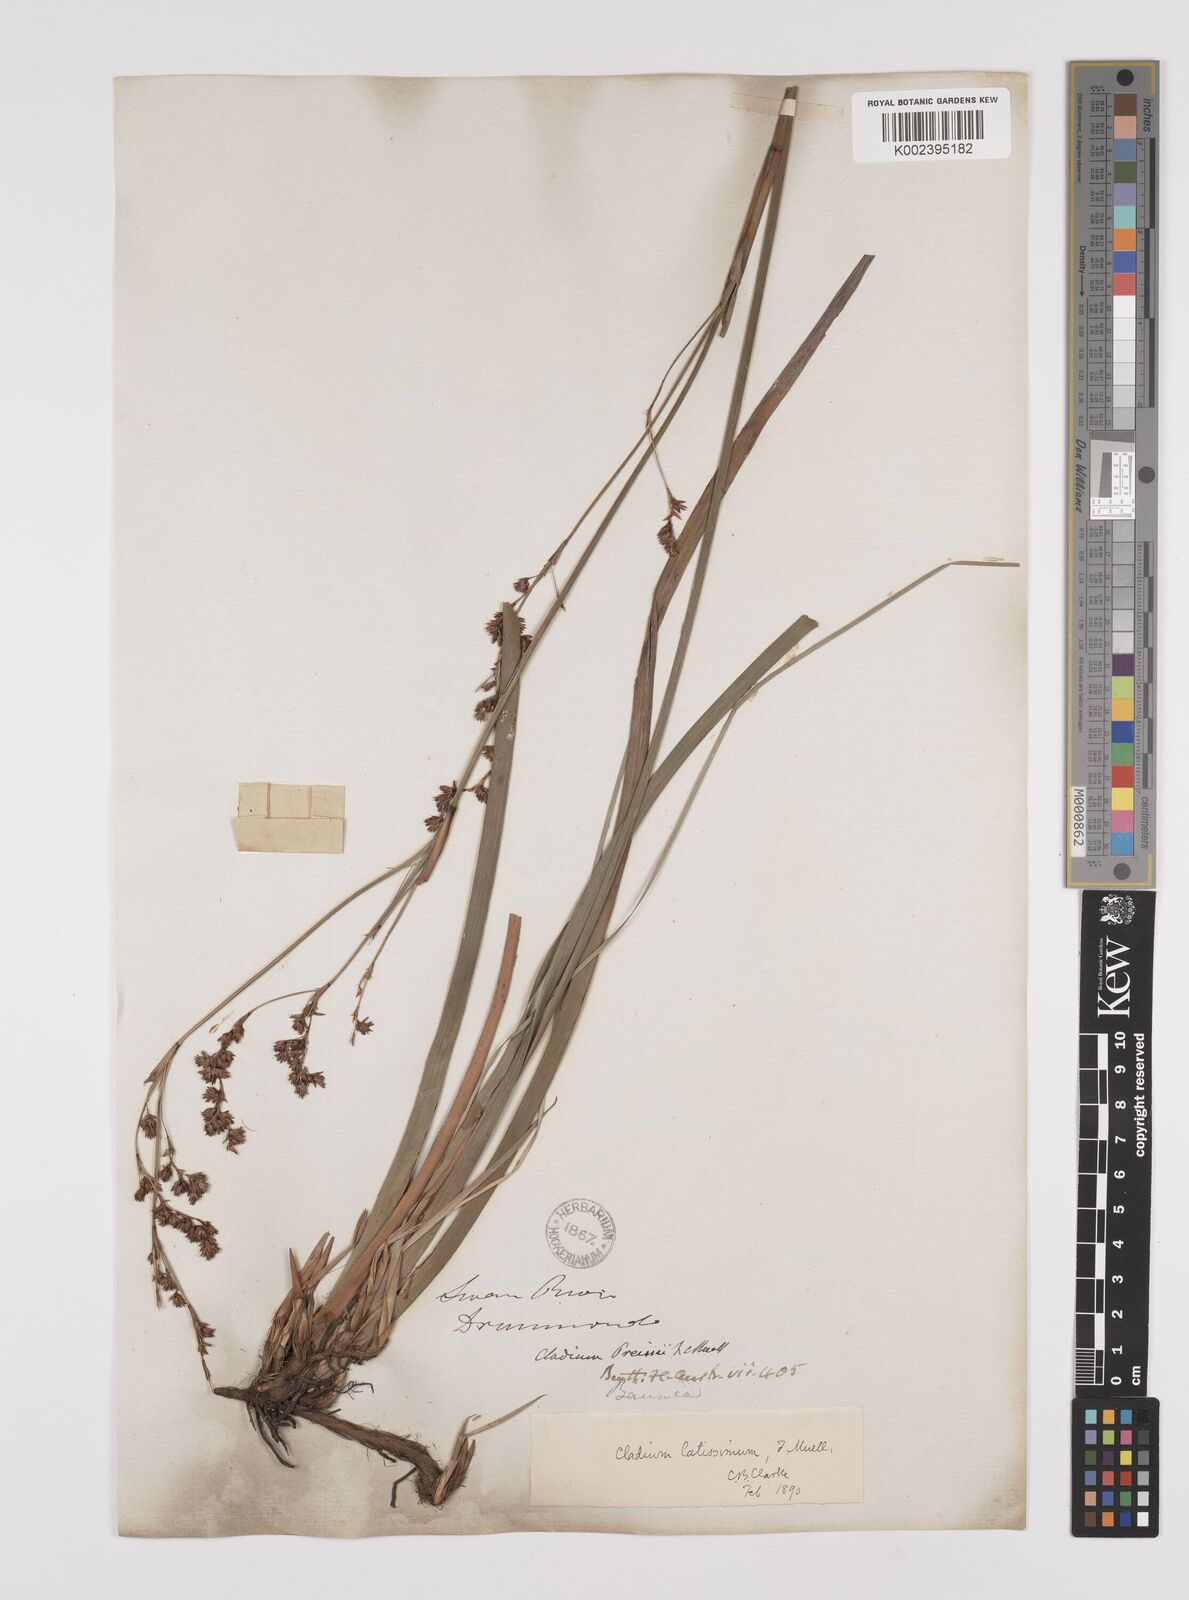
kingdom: Plantae
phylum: Tracheophyta
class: Liliopsida
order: Poales
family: Cyperaceae
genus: Machaerina
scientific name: Machaerina preissii
